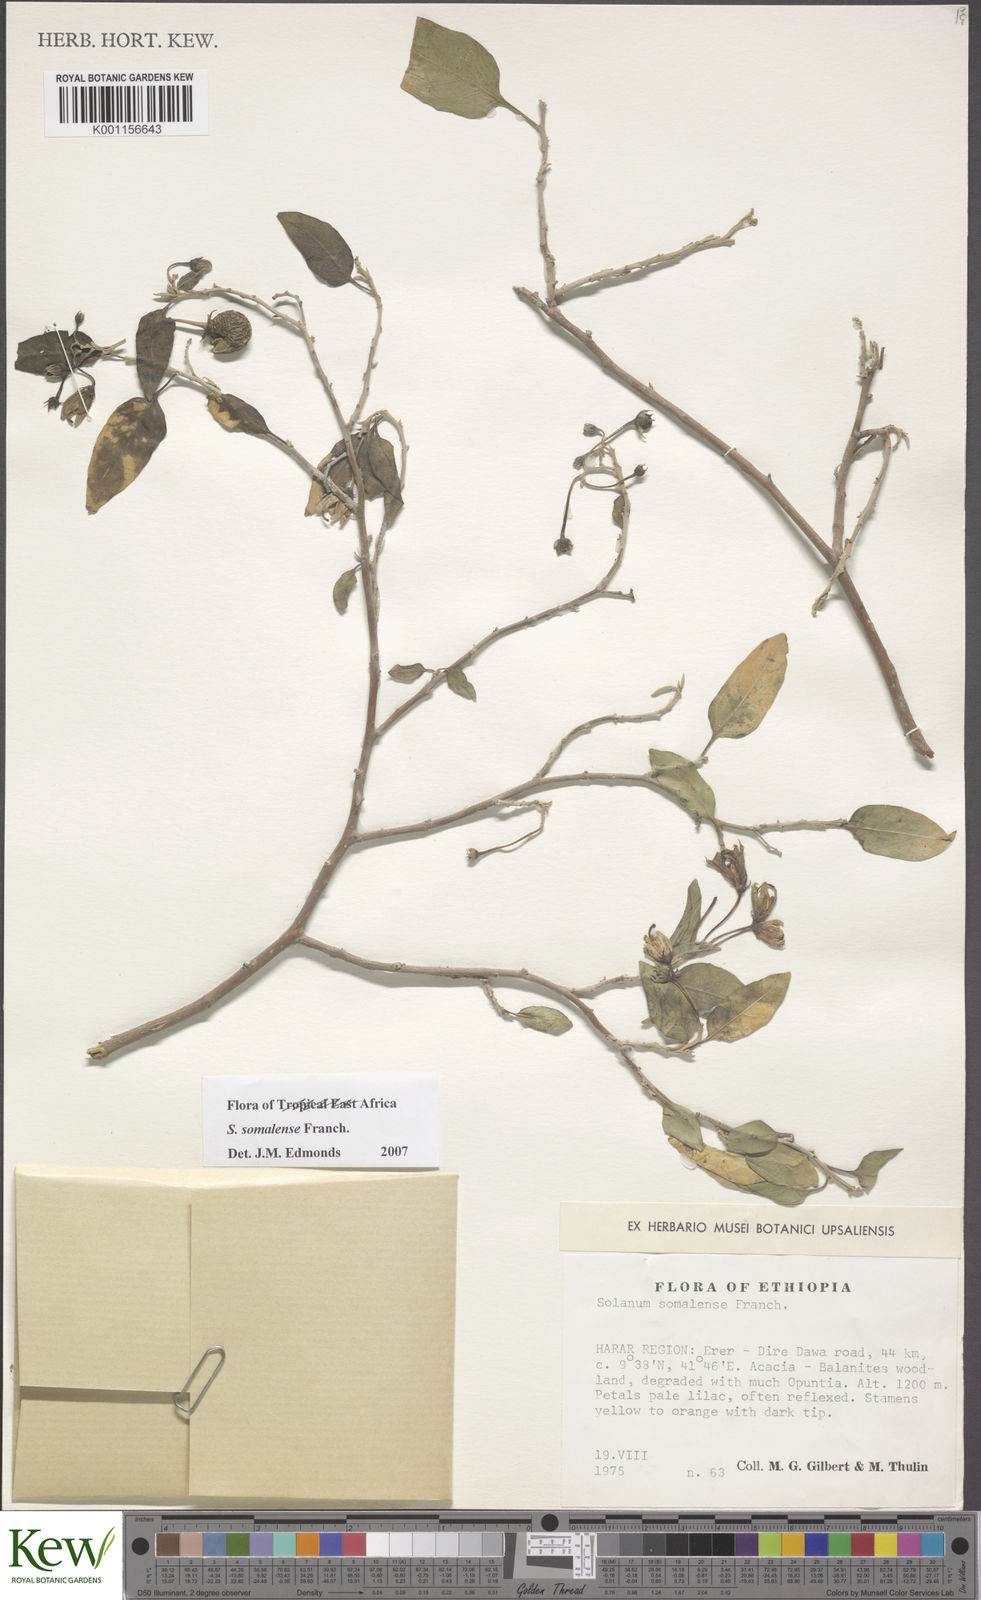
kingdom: Plantae
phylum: Tracheophyta
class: Magnoliopsida
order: Solanales
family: Solanaceae
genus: Solanum
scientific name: Solanum somalense
